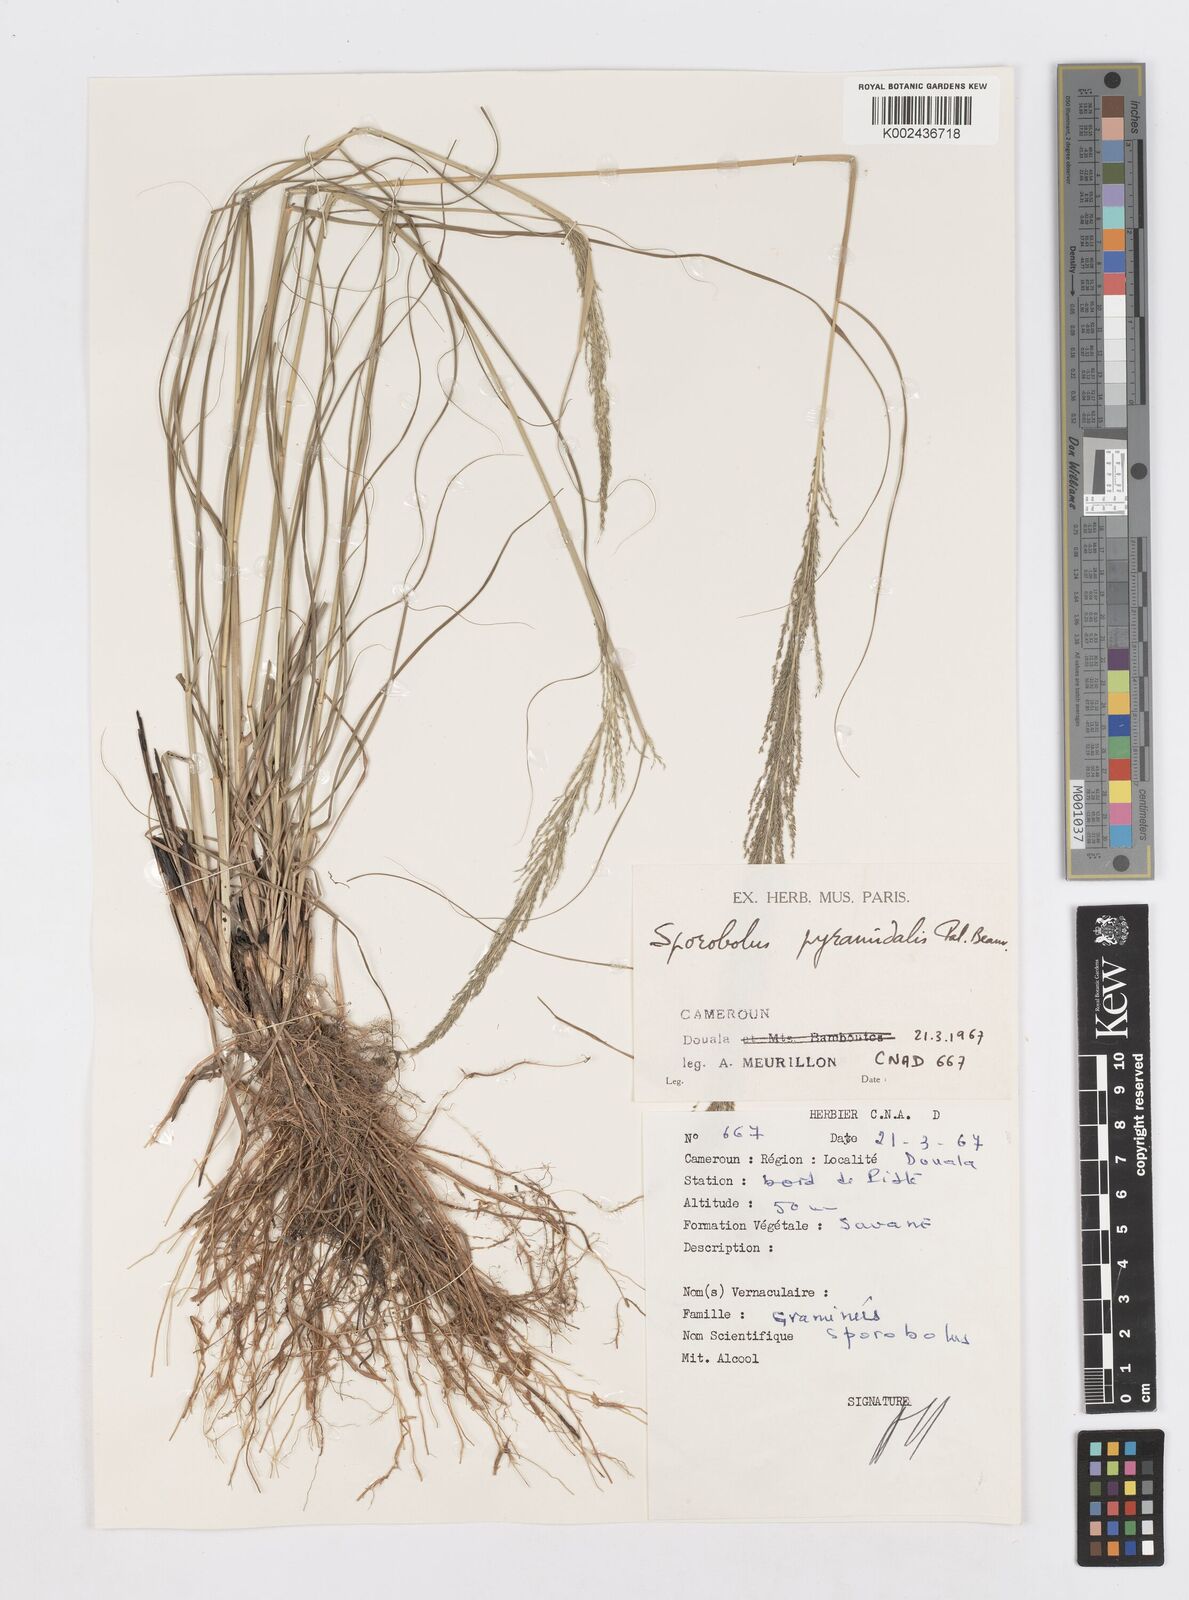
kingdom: Plantae
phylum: Tracheophyta
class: Liliopsida
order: Poales
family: Poaceae
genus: Sporobolus
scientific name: Sporobolus pyramidalis
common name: West indian dropseed
